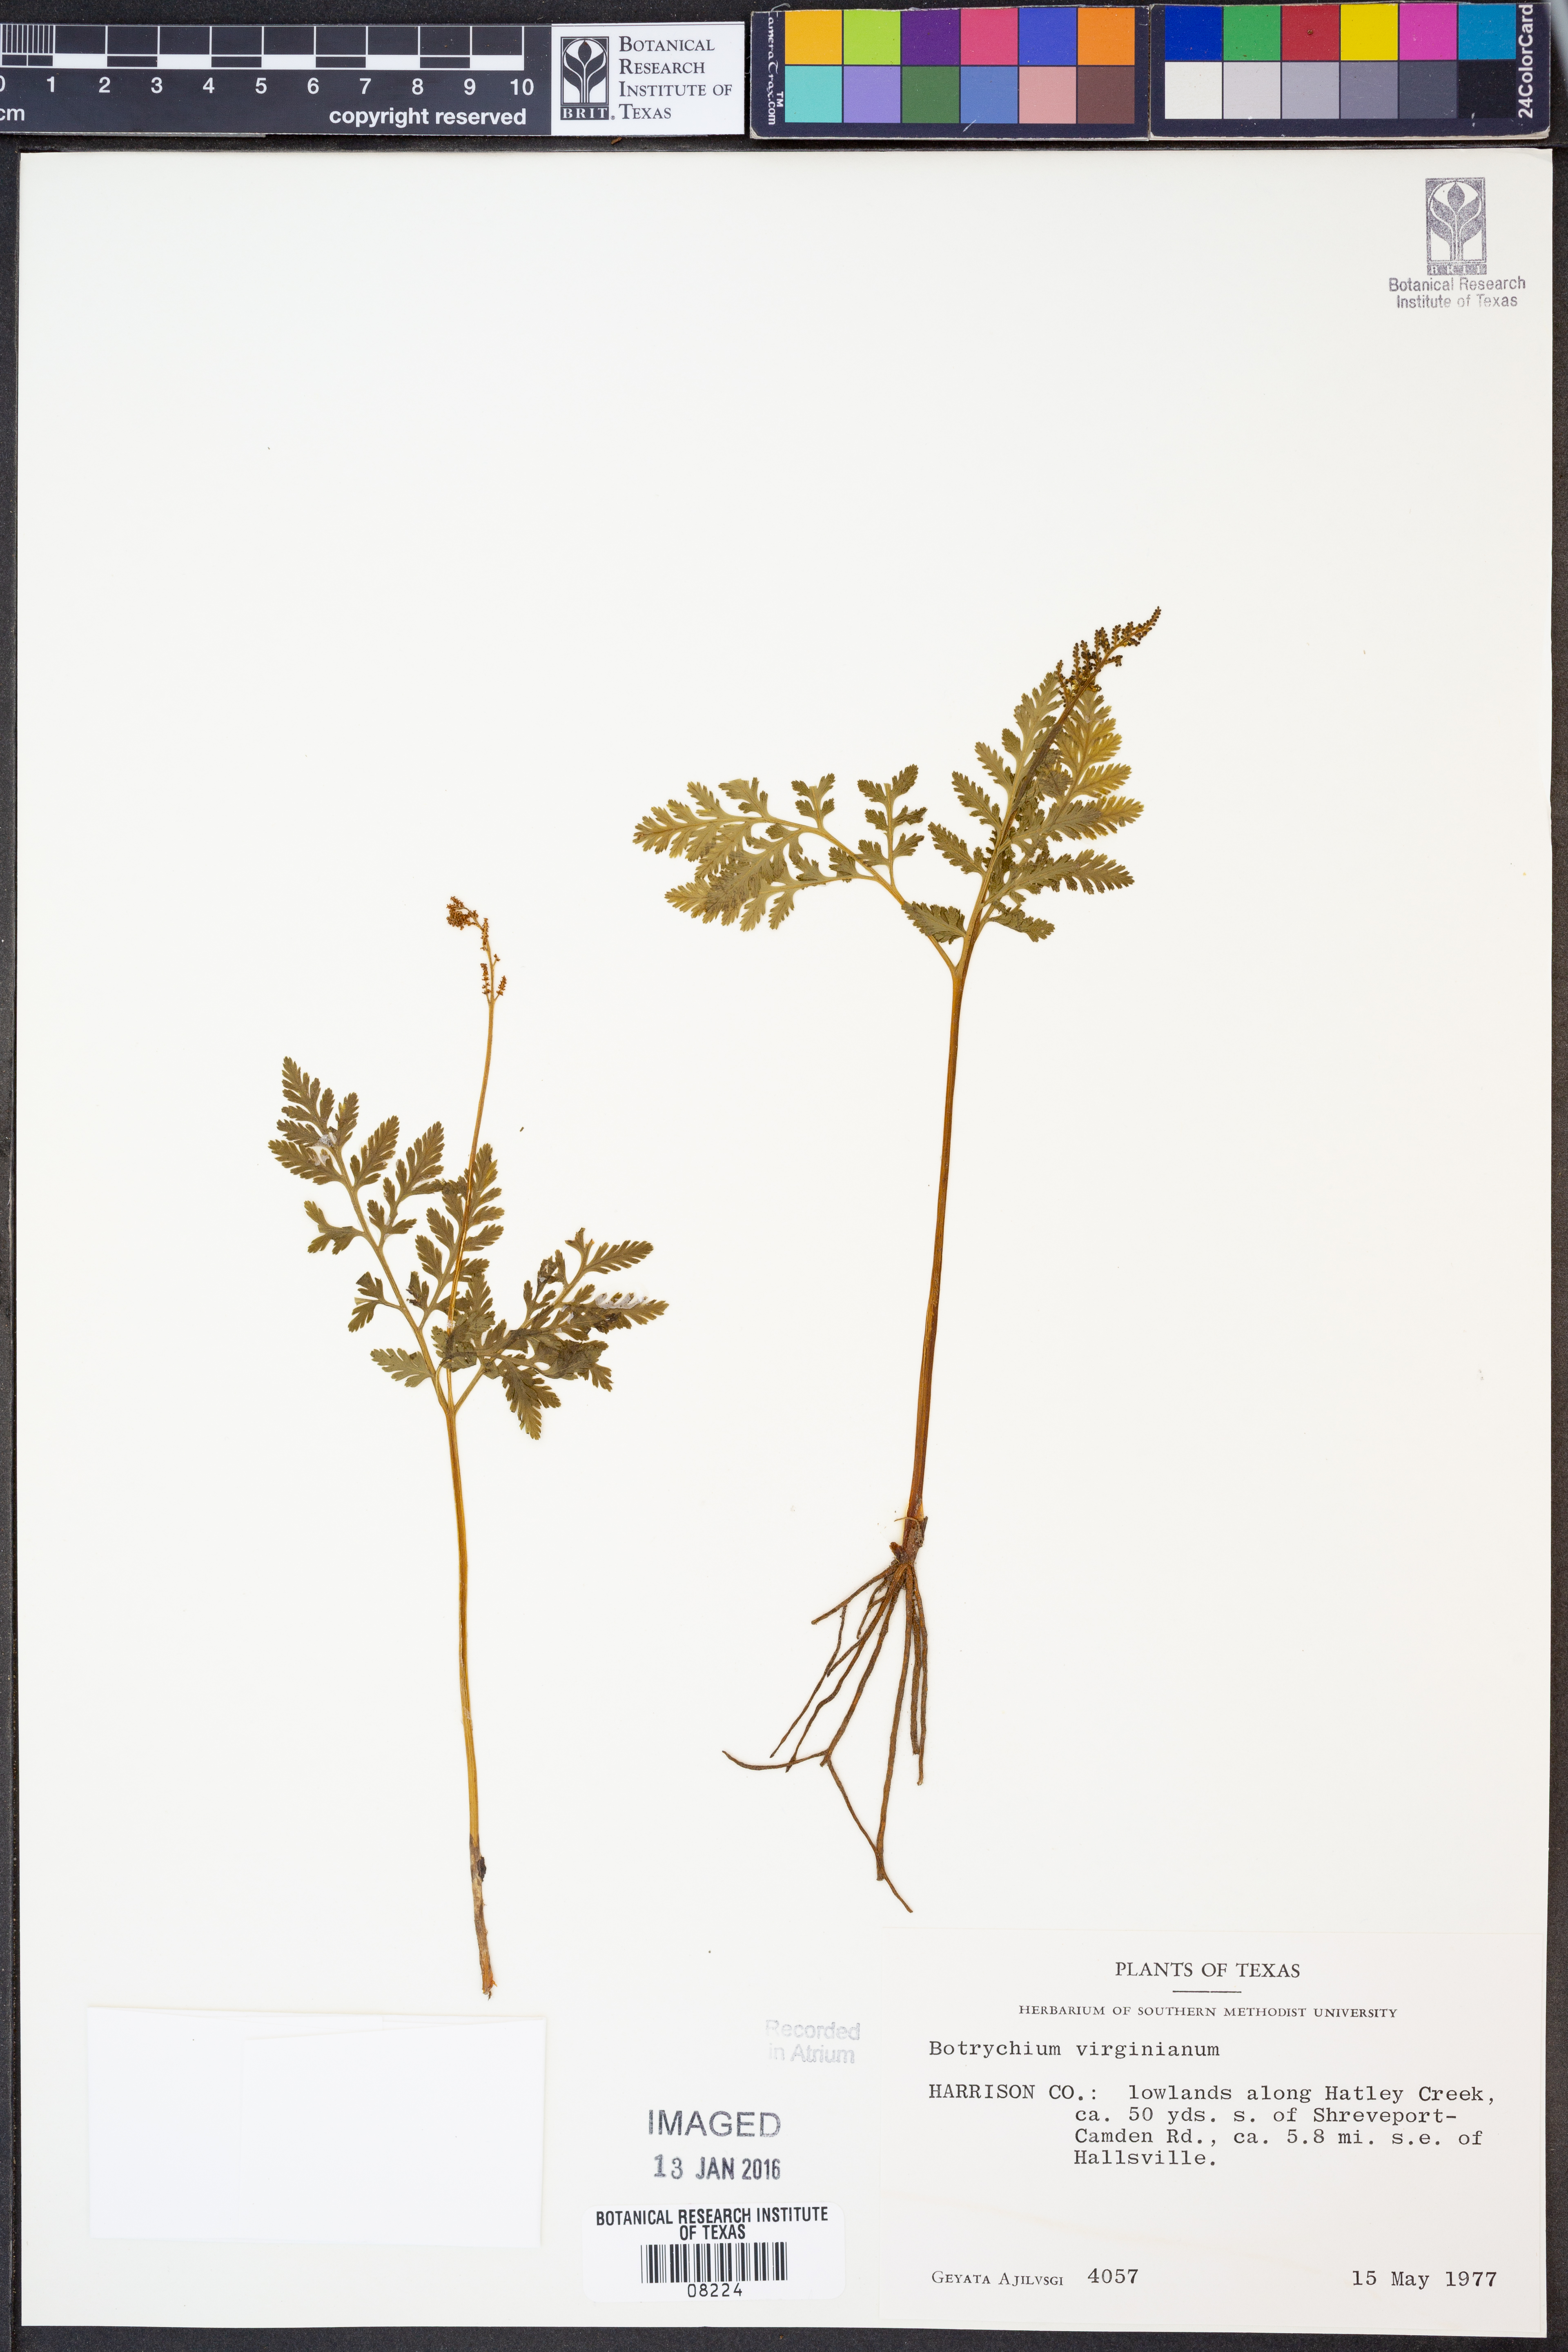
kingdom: Plantae
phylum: Tracheophyta
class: Polypodiopsida
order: Ophioglossales
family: Ophioglossaceae
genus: Botrypus
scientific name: Botrypus virginianus
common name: Common grapefern
